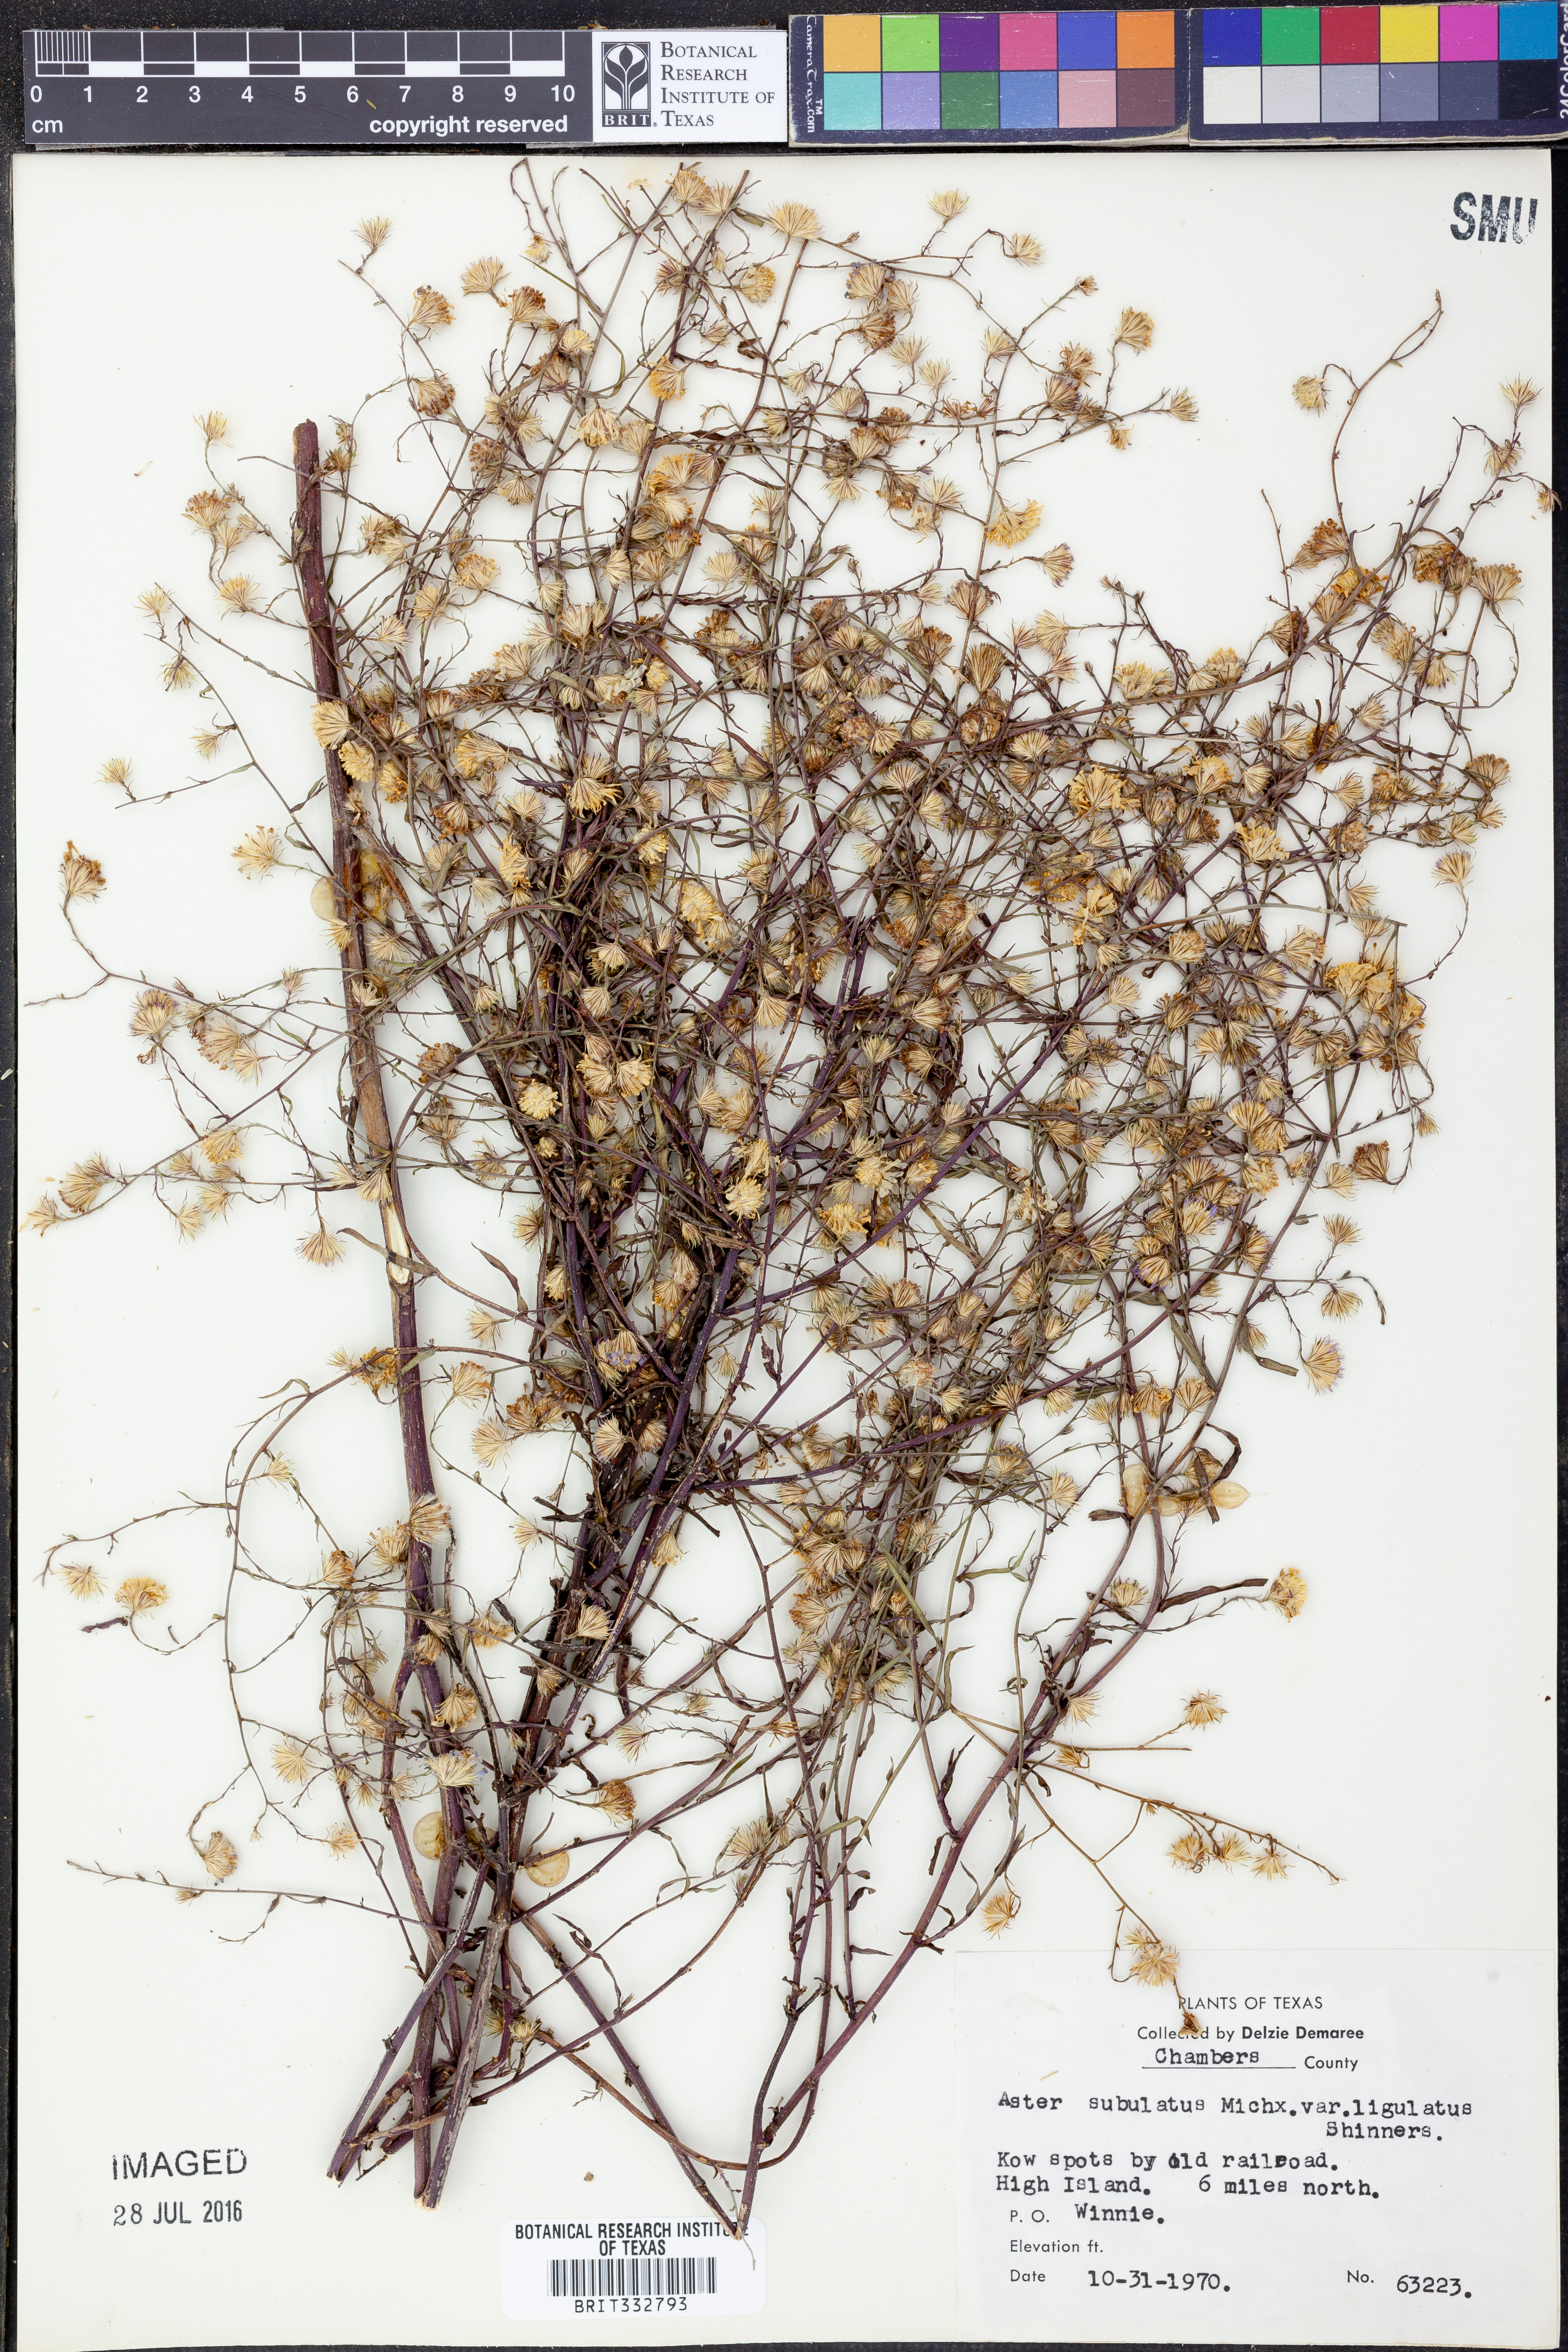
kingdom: Plantae
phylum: Tracheophyta
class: Magnoliopsida
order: Asterales
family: Asteraceae
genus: Symphyotrichum
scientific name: Symphyotrichum divaricatum
